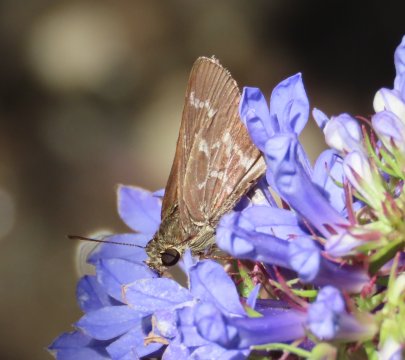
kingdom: Animalia
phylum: Arthropoda
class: Insecta
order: Lepidoptera
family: Hesperiidae
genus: Mastor
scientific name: Mastor aesculapius
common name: Lace-winged Roadside-Skipper
